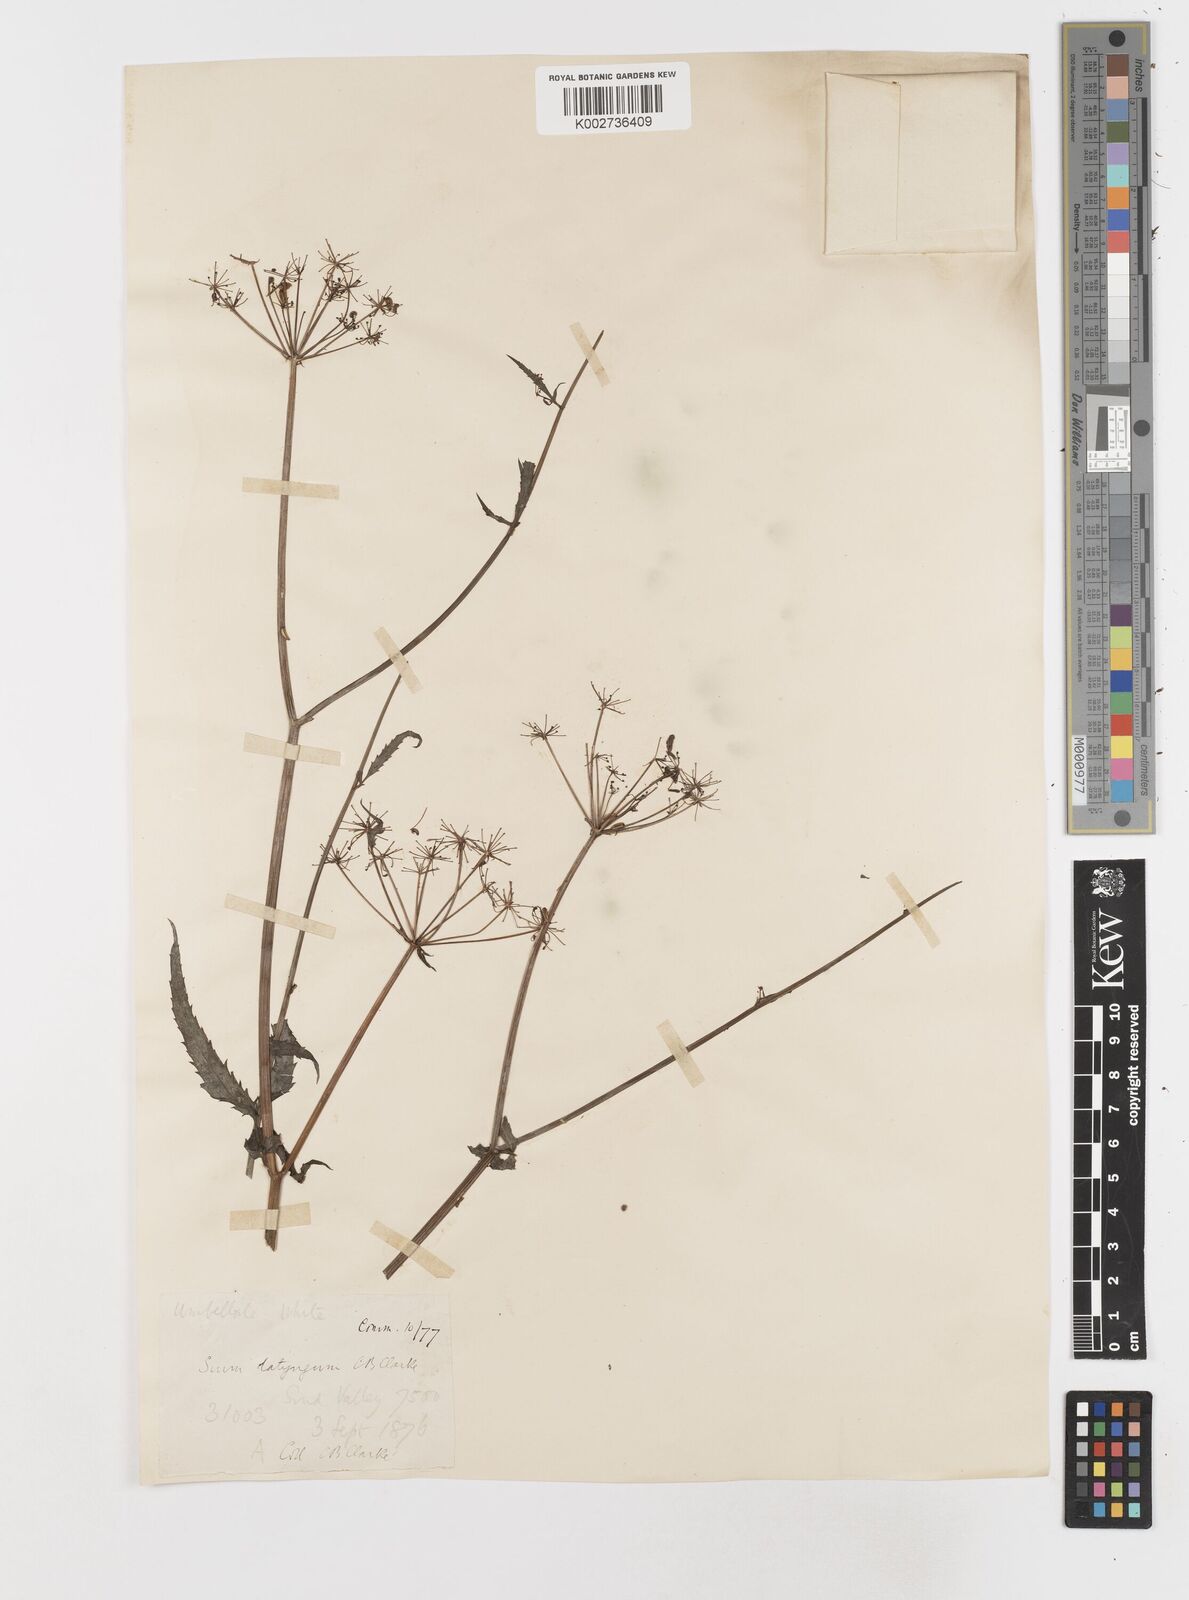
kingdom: Plantae
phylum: Tracheophyta
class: Magnoliopsida
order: Apiales
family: Apiaceae
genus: Sium
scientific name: Sium sisarum
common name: Skirret
